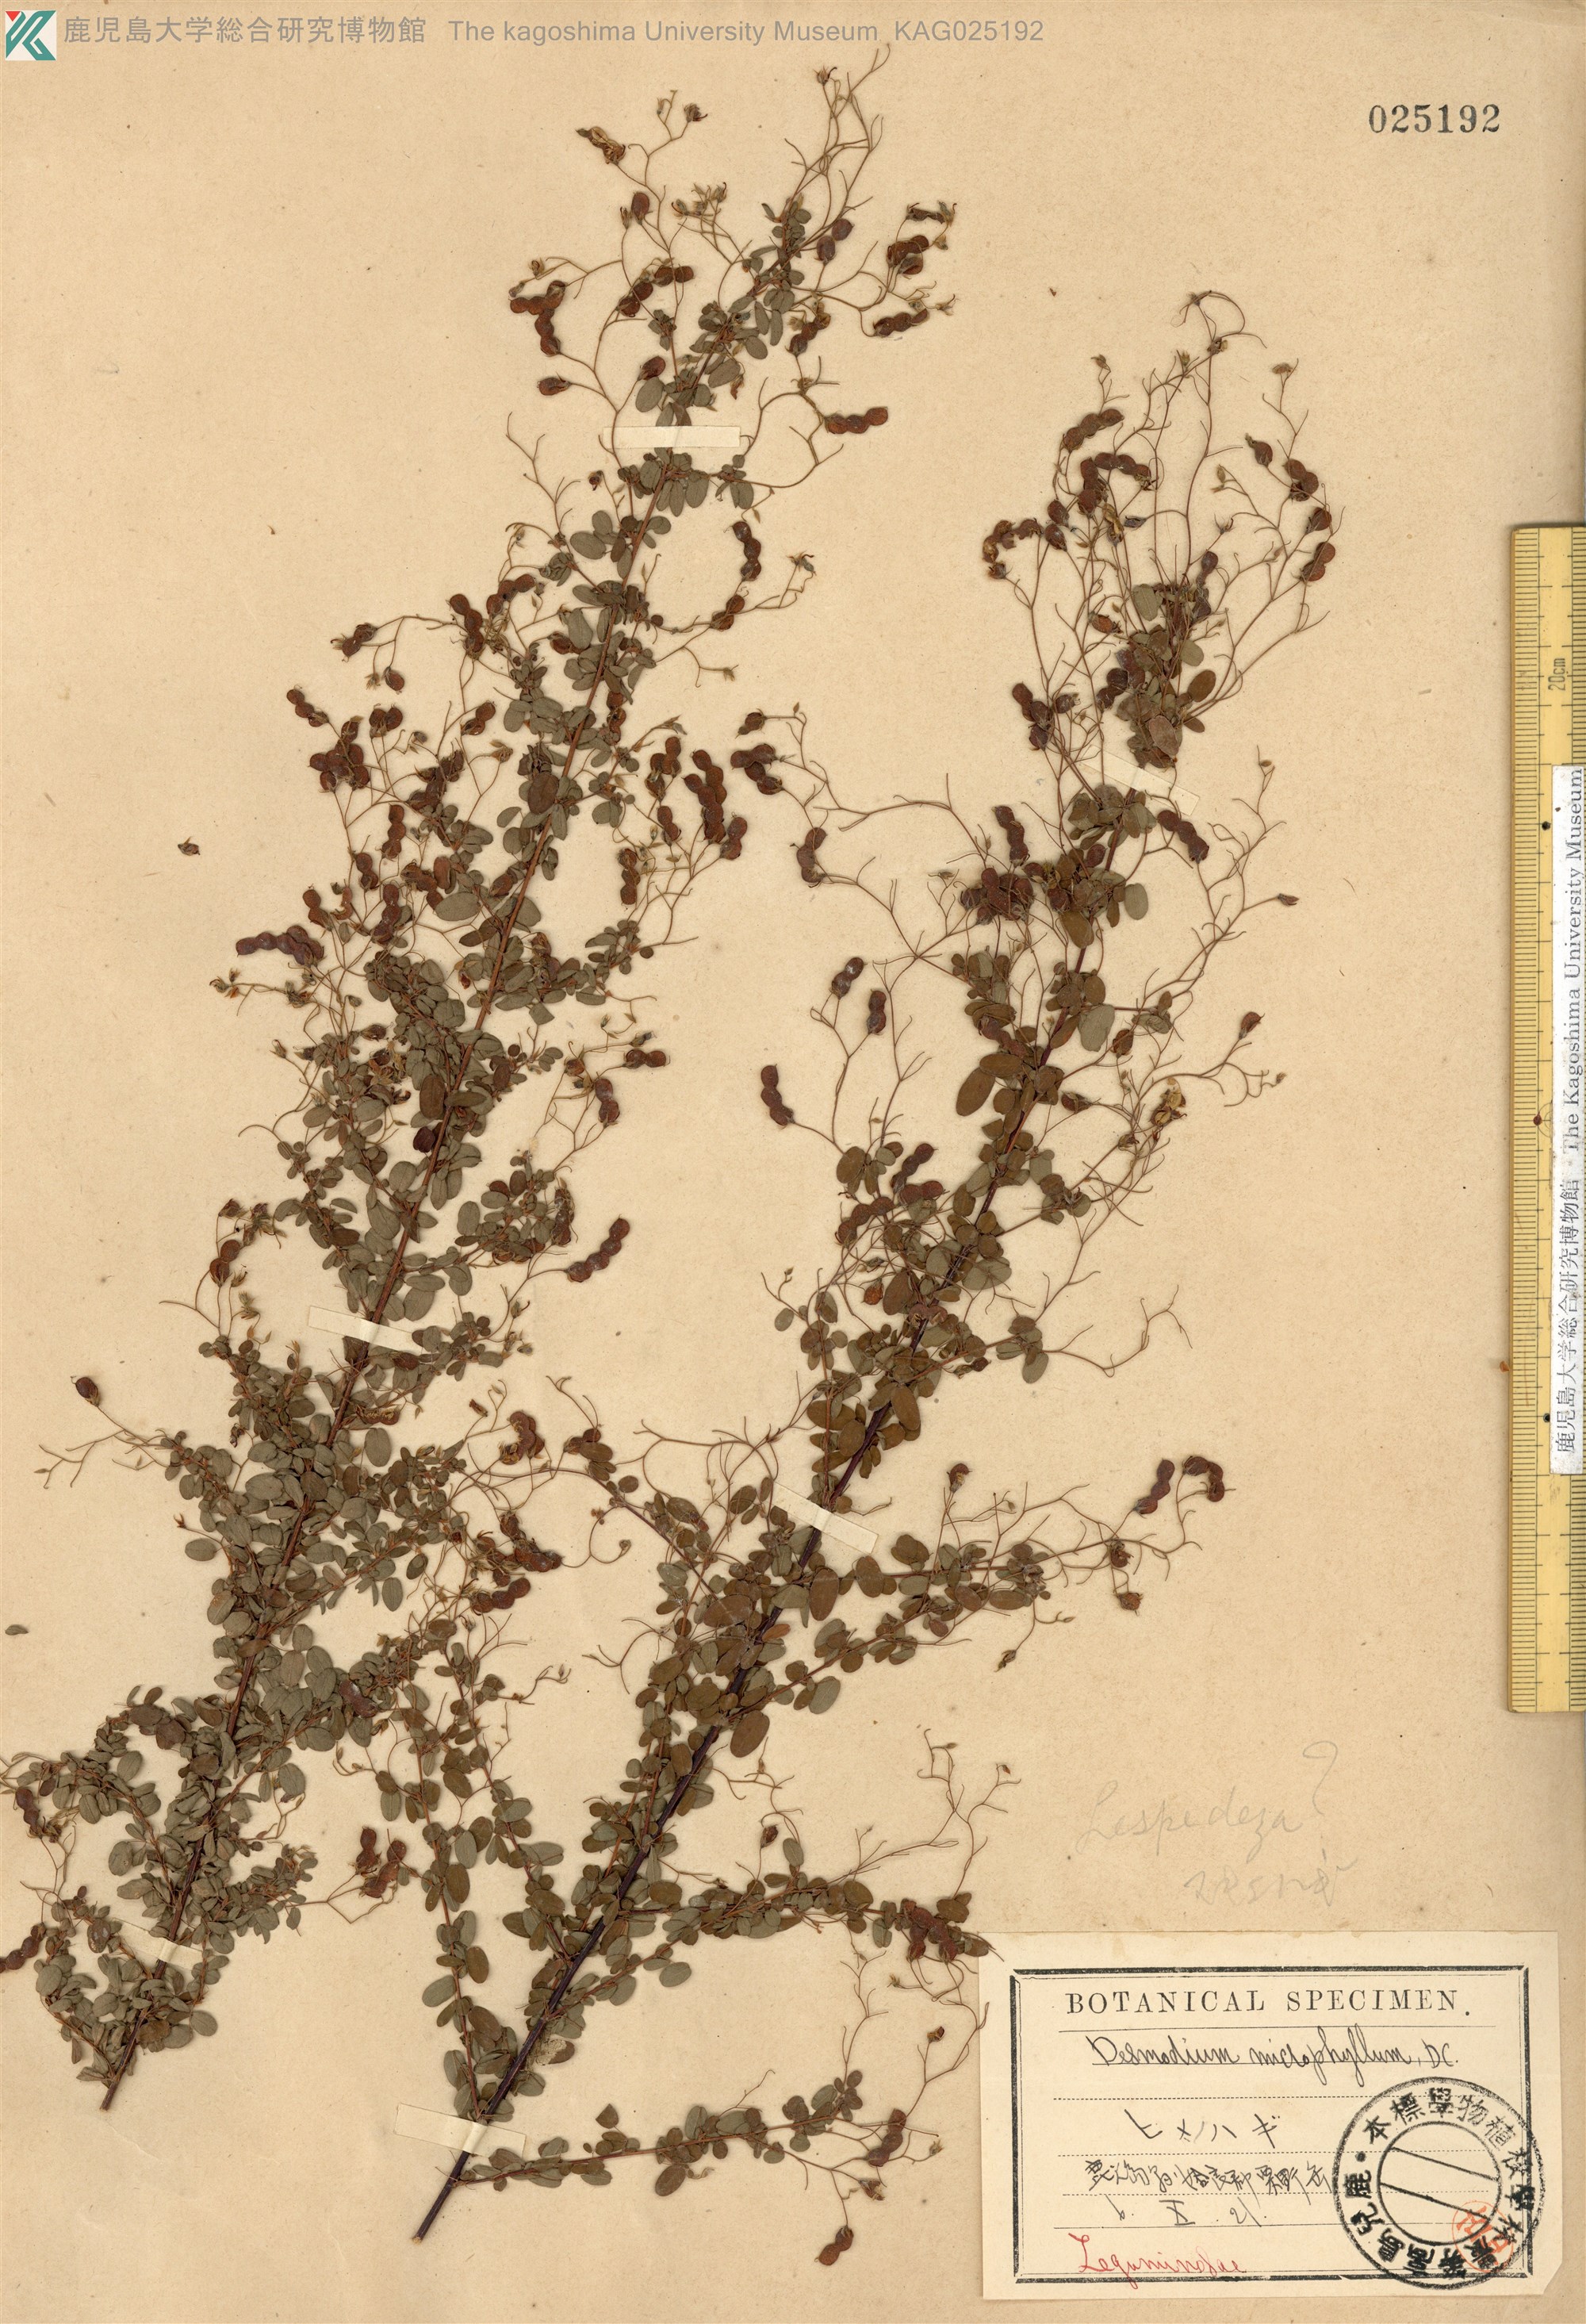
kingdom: Plantae
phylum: Tracheophyta
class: Magnoliopsida
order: Fabales
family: Fabaceae
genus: Leptodesmia
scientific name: Leptodesmia microphylla
